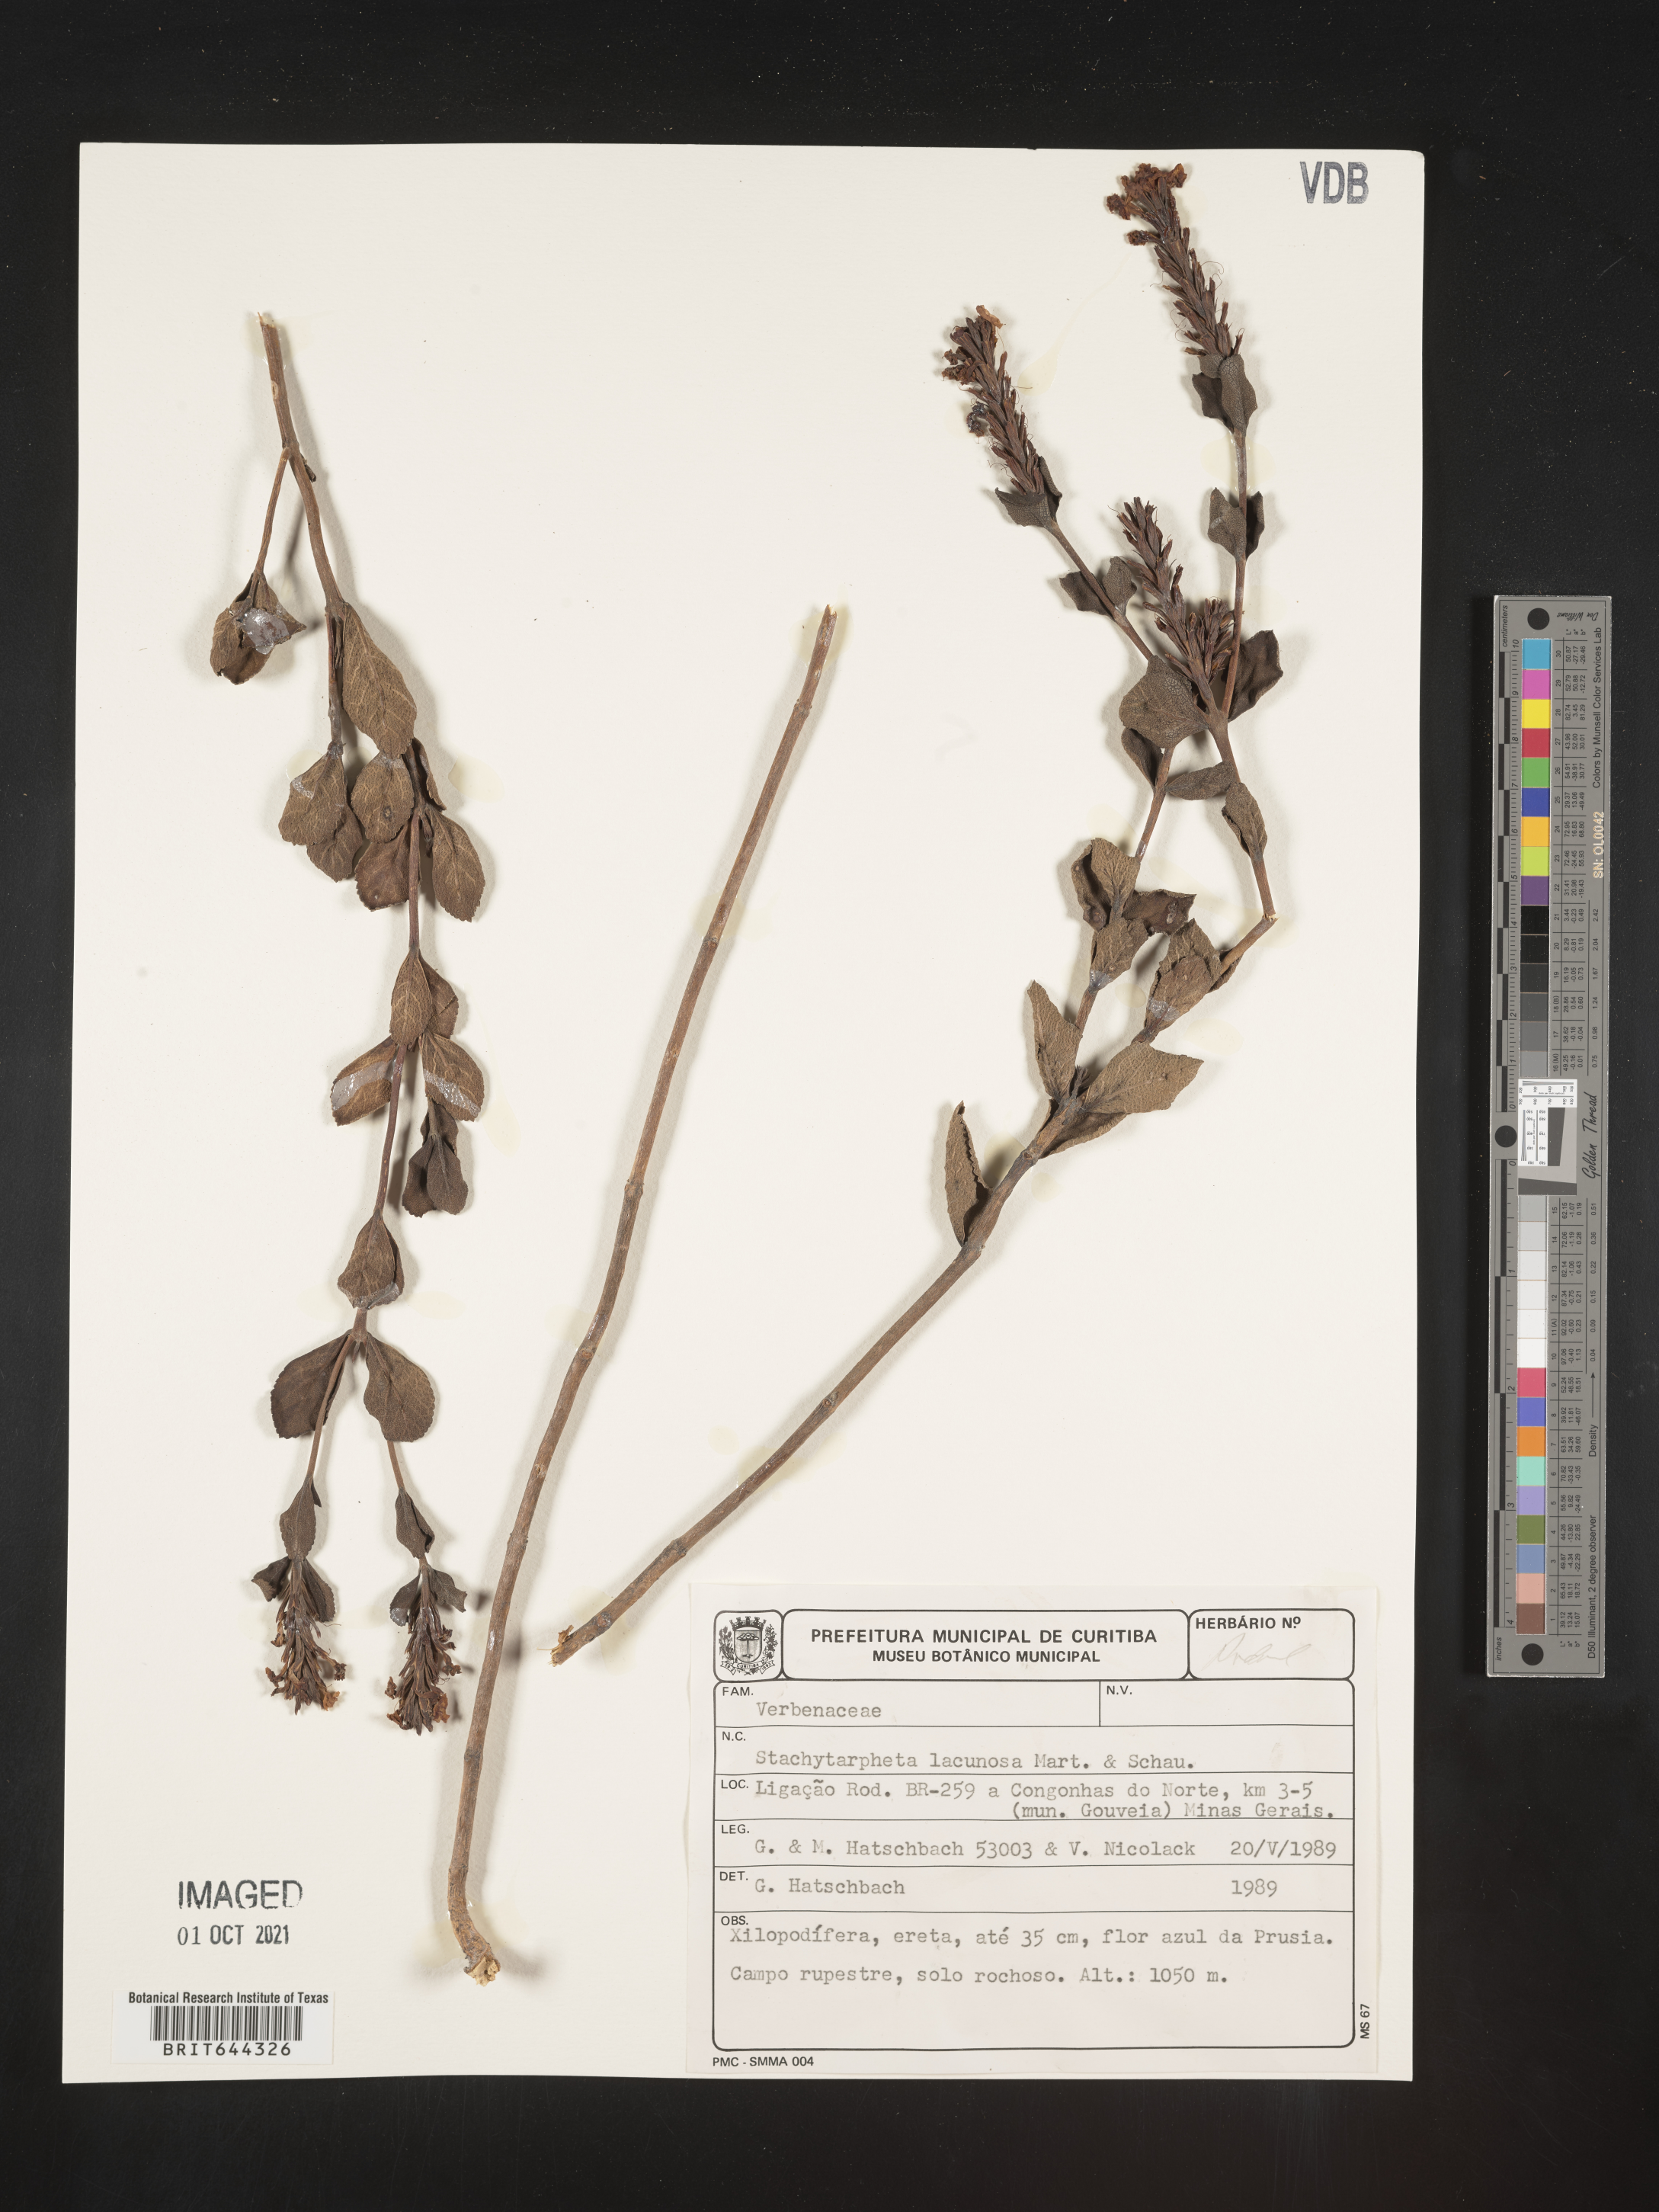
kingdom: Plantae
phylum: Tracheophyta
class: Magnoliopsida
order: Lamiales
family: Verbenaceae
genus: Stachytarpheta
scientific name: Stachytarpheta
